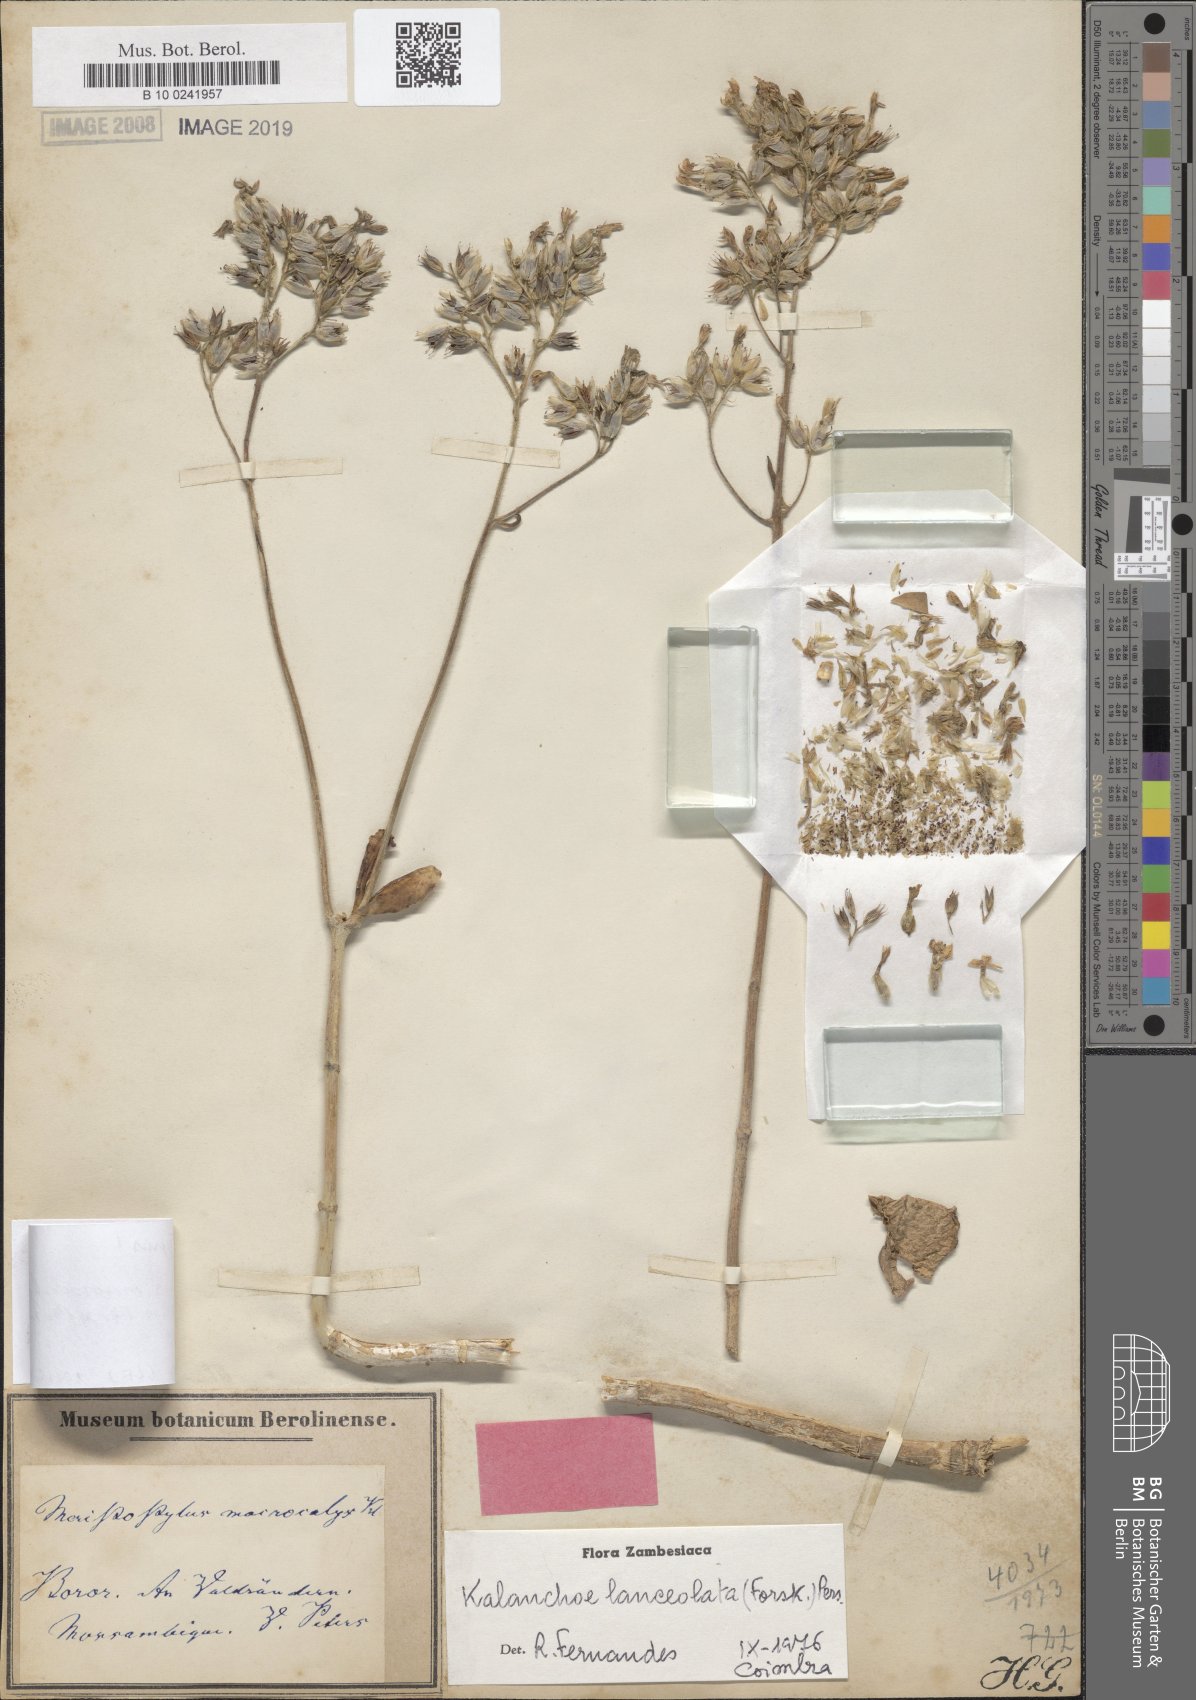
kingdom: Plantae
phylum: Tracheophyta
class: Magnoliopsida
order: Saxifragales
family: Crassulaceae
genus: Kalanchoe
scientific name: Kalanchoe lanceolata
